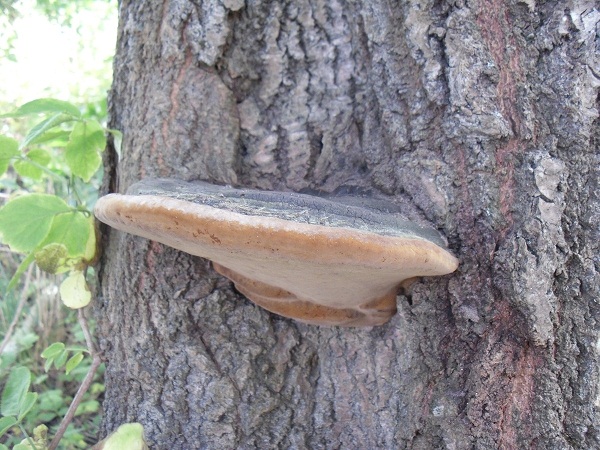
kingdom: Fungi
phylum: Basidiomycota
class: Agaricomycetes
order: Hymenochaetales
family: Hymenochaetaceae
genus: Phellinus
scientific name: Phellinus populicola
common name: poppel-ildporesvamp
